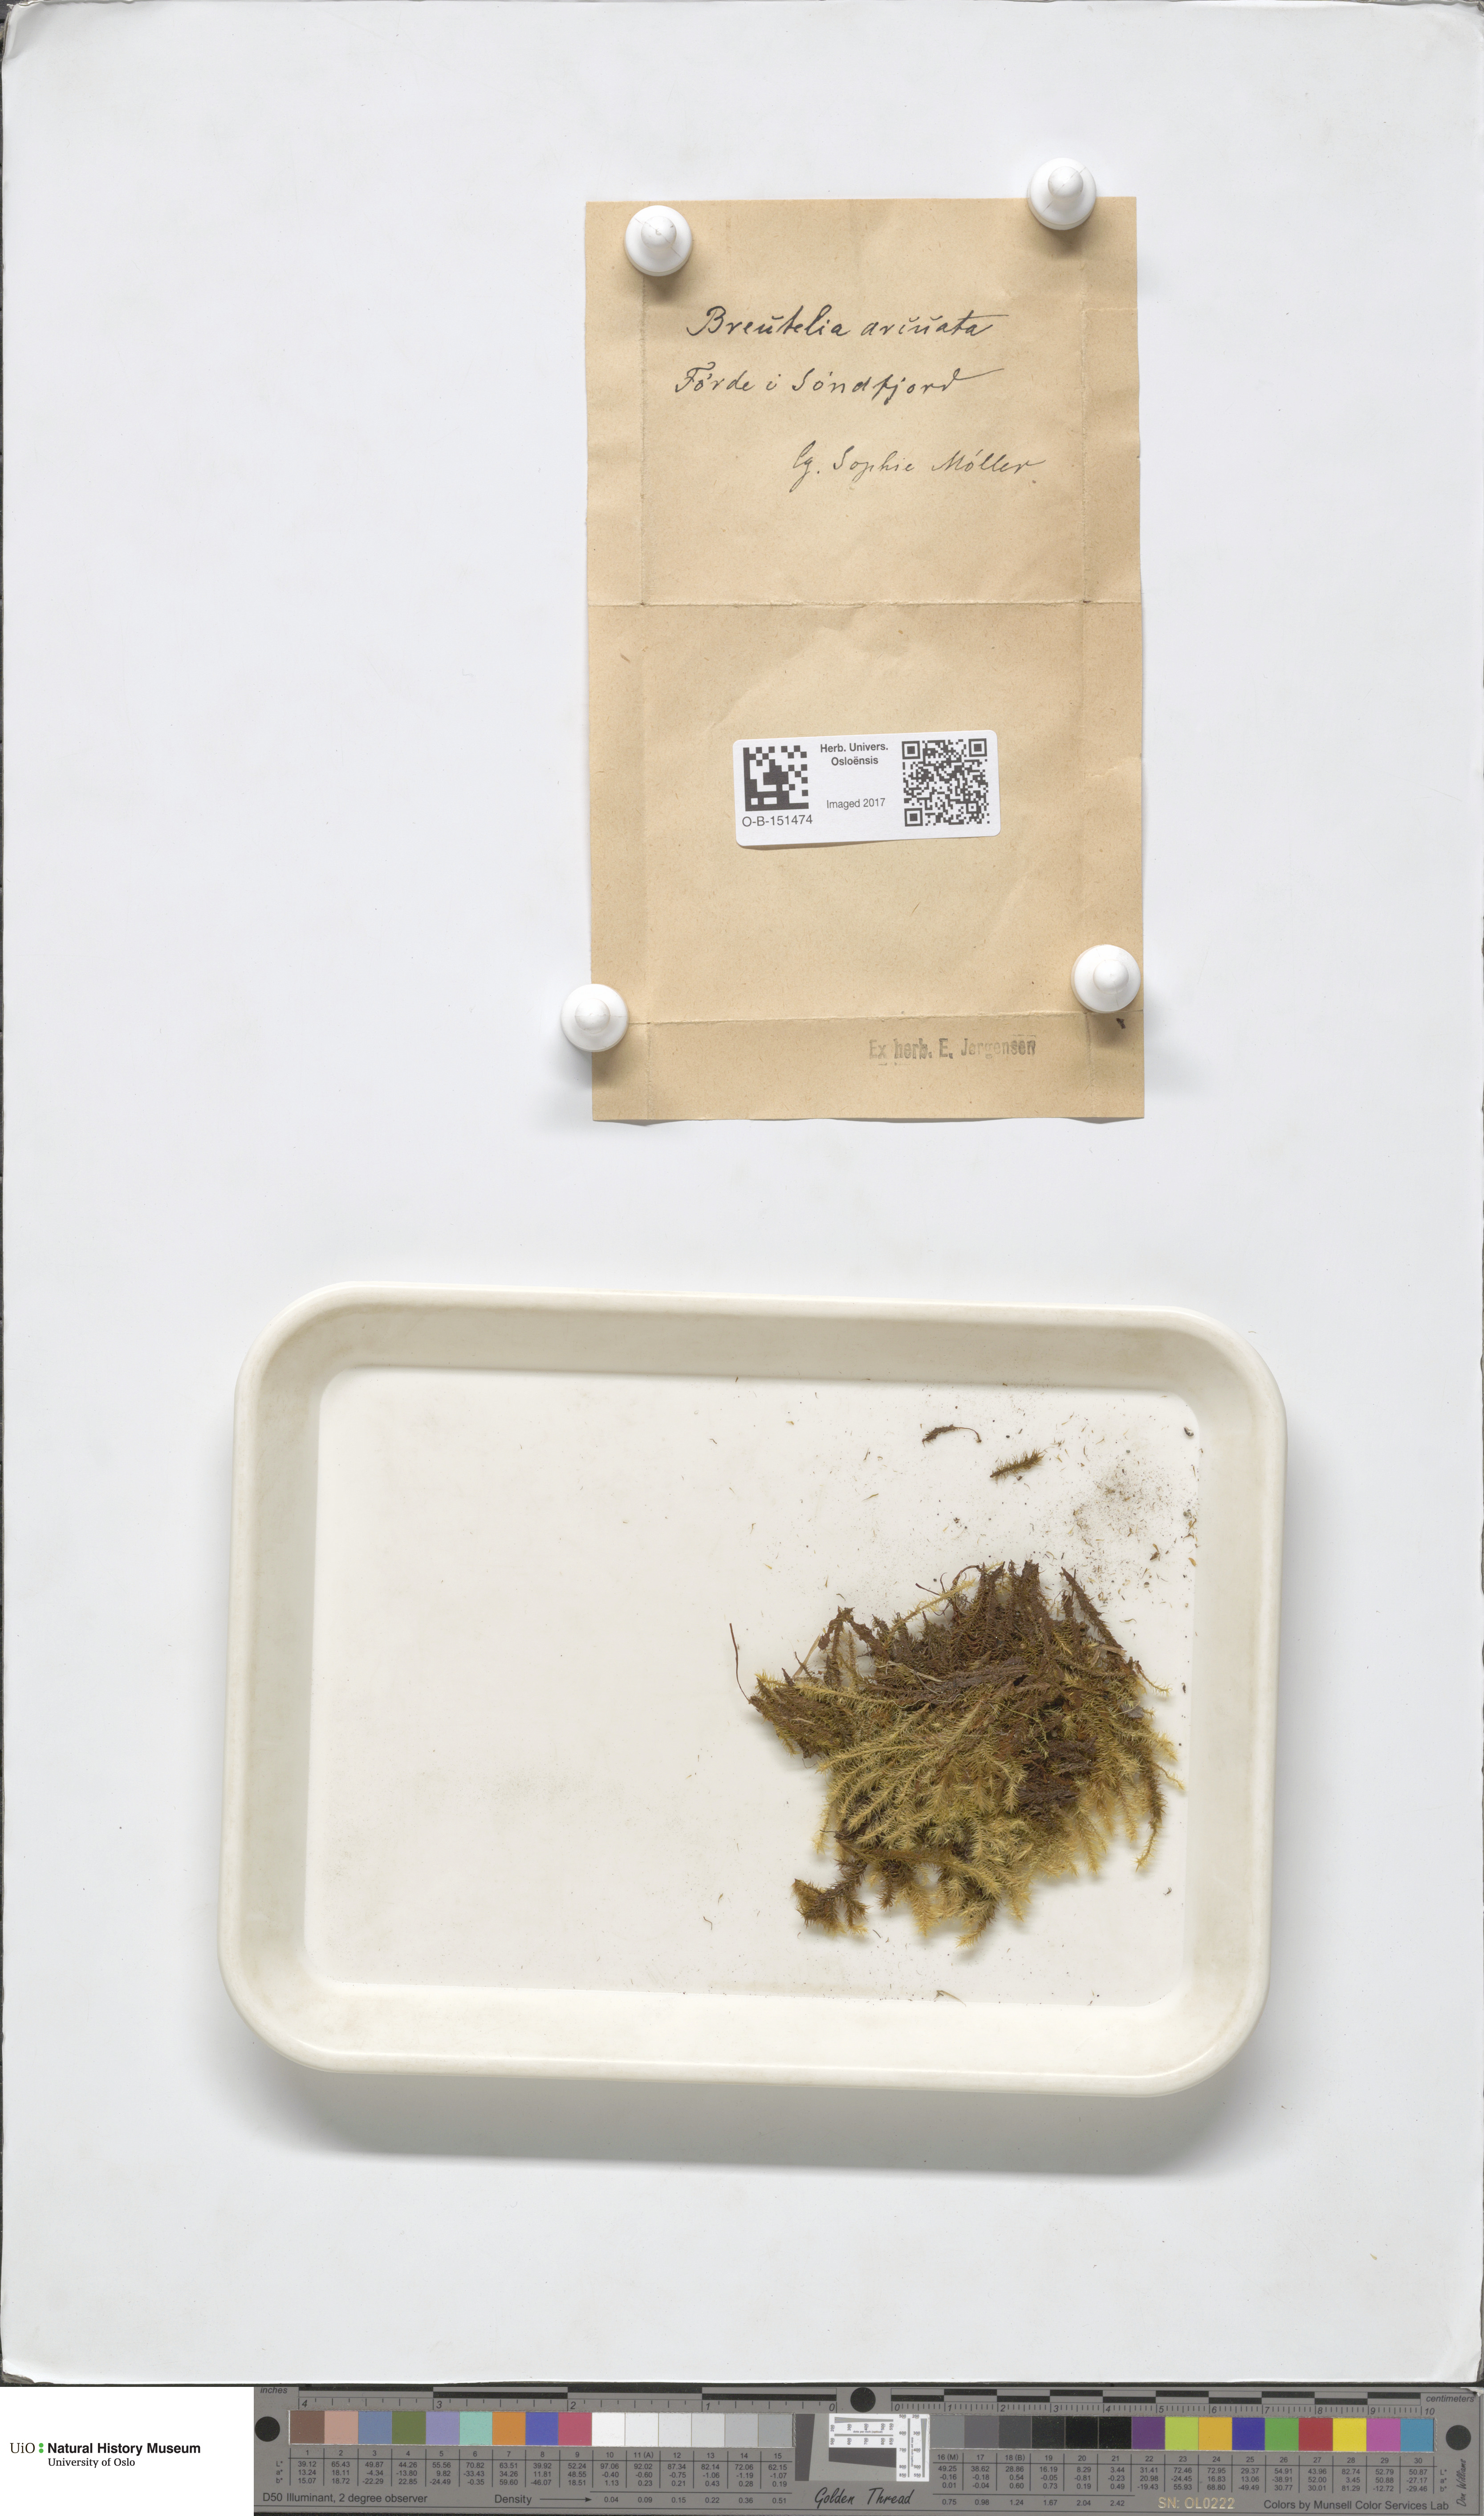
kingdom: Plantae
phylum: Bryophyta
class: Bryopsida
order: Bartramiales
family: Bartramiaceae
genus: Breutelia
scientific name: Breutelia chrysocoma
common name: Bottle-brush moss
